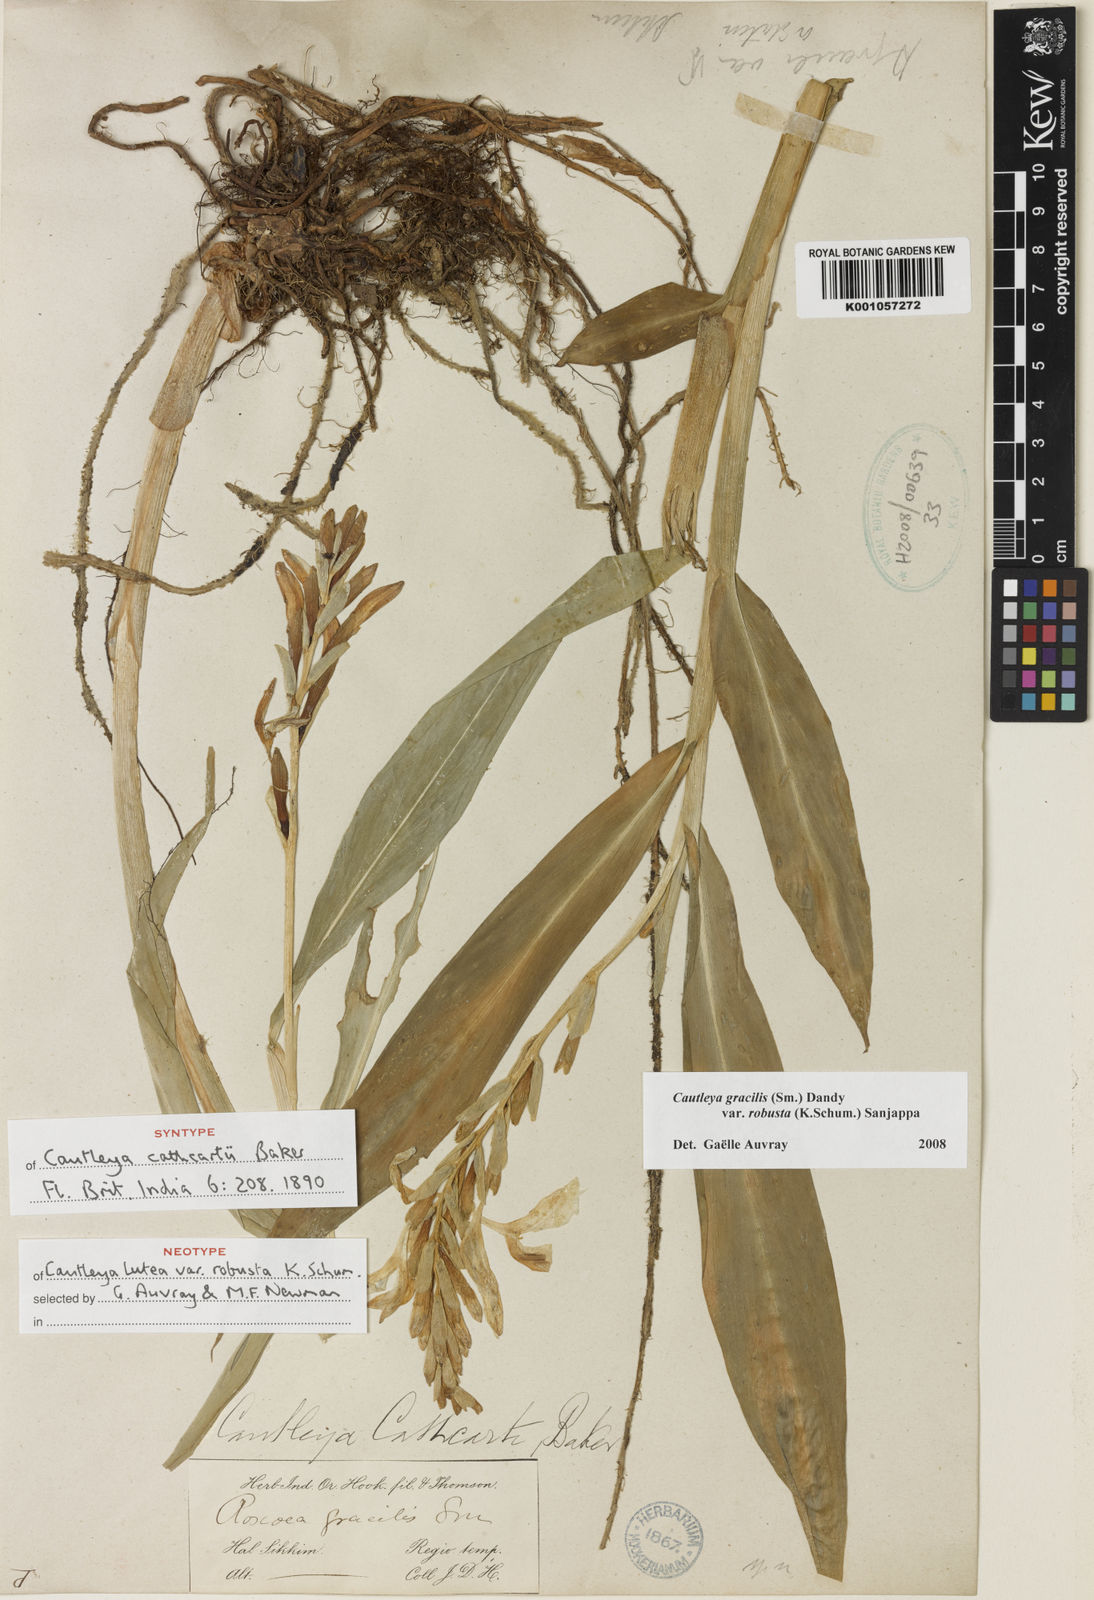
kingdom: Plantae
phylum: Tracheophyta
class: Liliopsida
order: Zingiberales
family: Zingiberaceae
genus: Cautleya
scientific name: Cautleya gracilis
